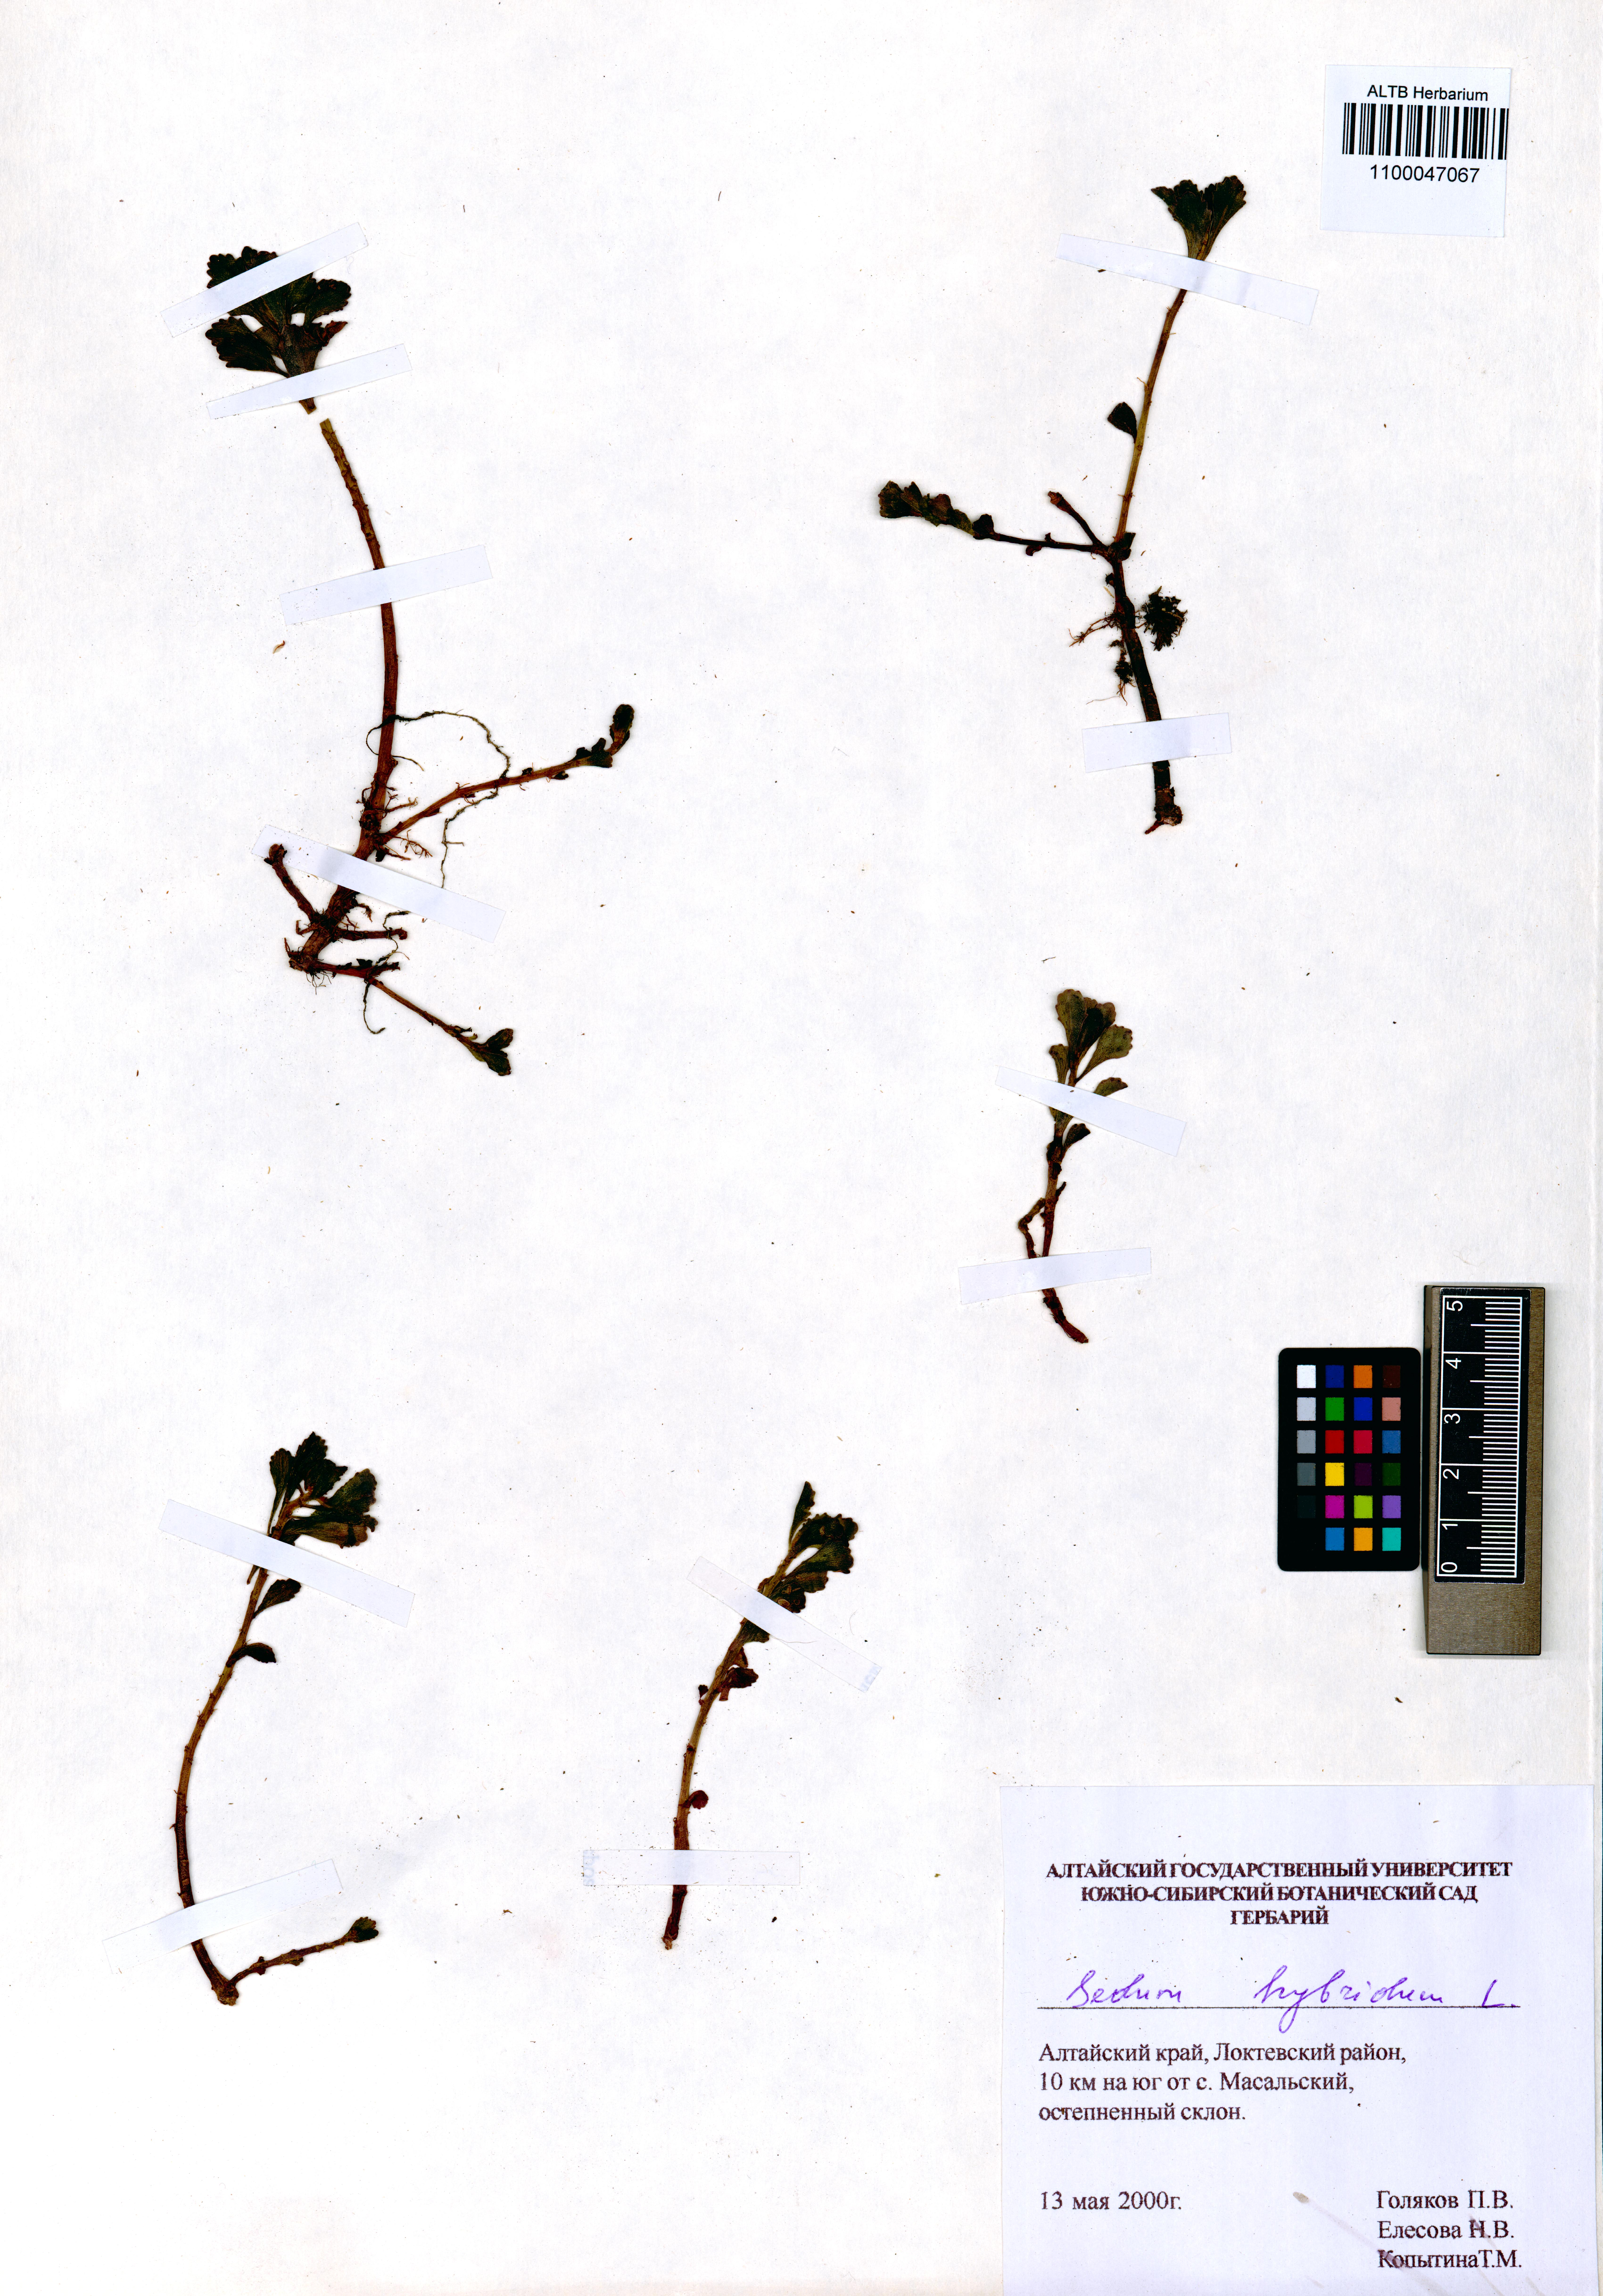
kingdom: Plantae
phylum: Tracheophyta
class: Magnoliopsida
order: Saxifragales
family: Crassulaceae
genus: Phedimus
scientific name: Phedimus hybridus
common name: Hybrid stonecrop
